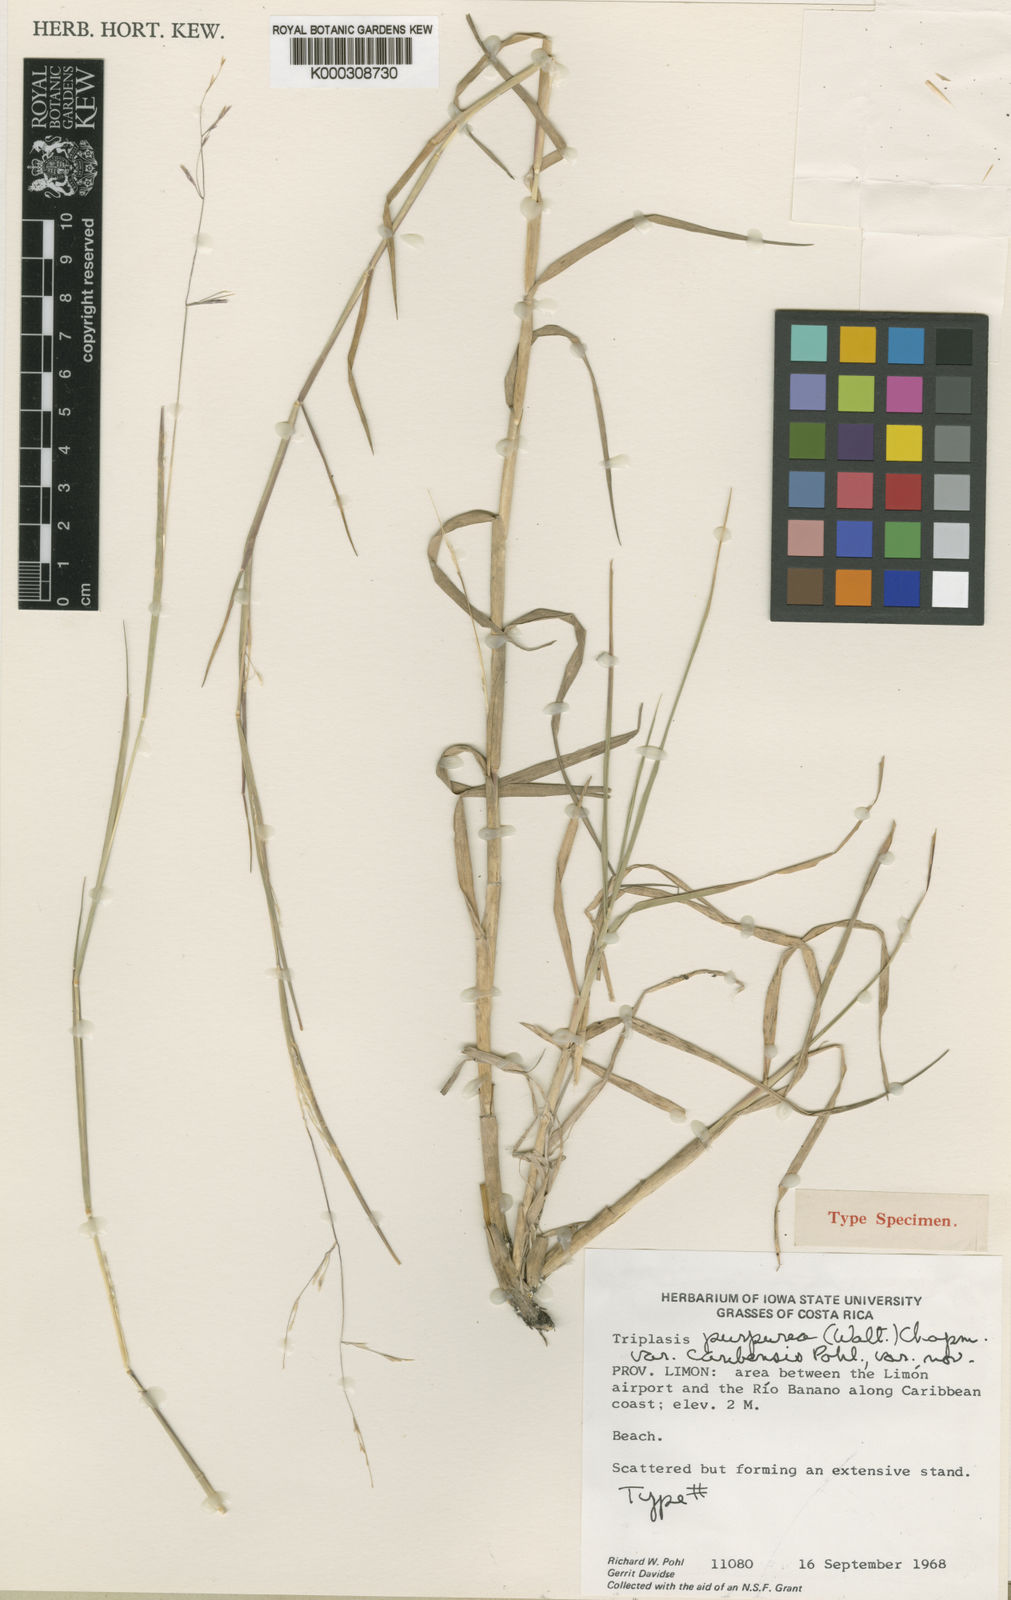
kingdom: Plantae
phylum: Tracheophyta
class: Liliopsida
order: Poales
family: Poaceae
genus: Triplasis
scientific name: Triplasis purpurea
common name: Purple sand grass
